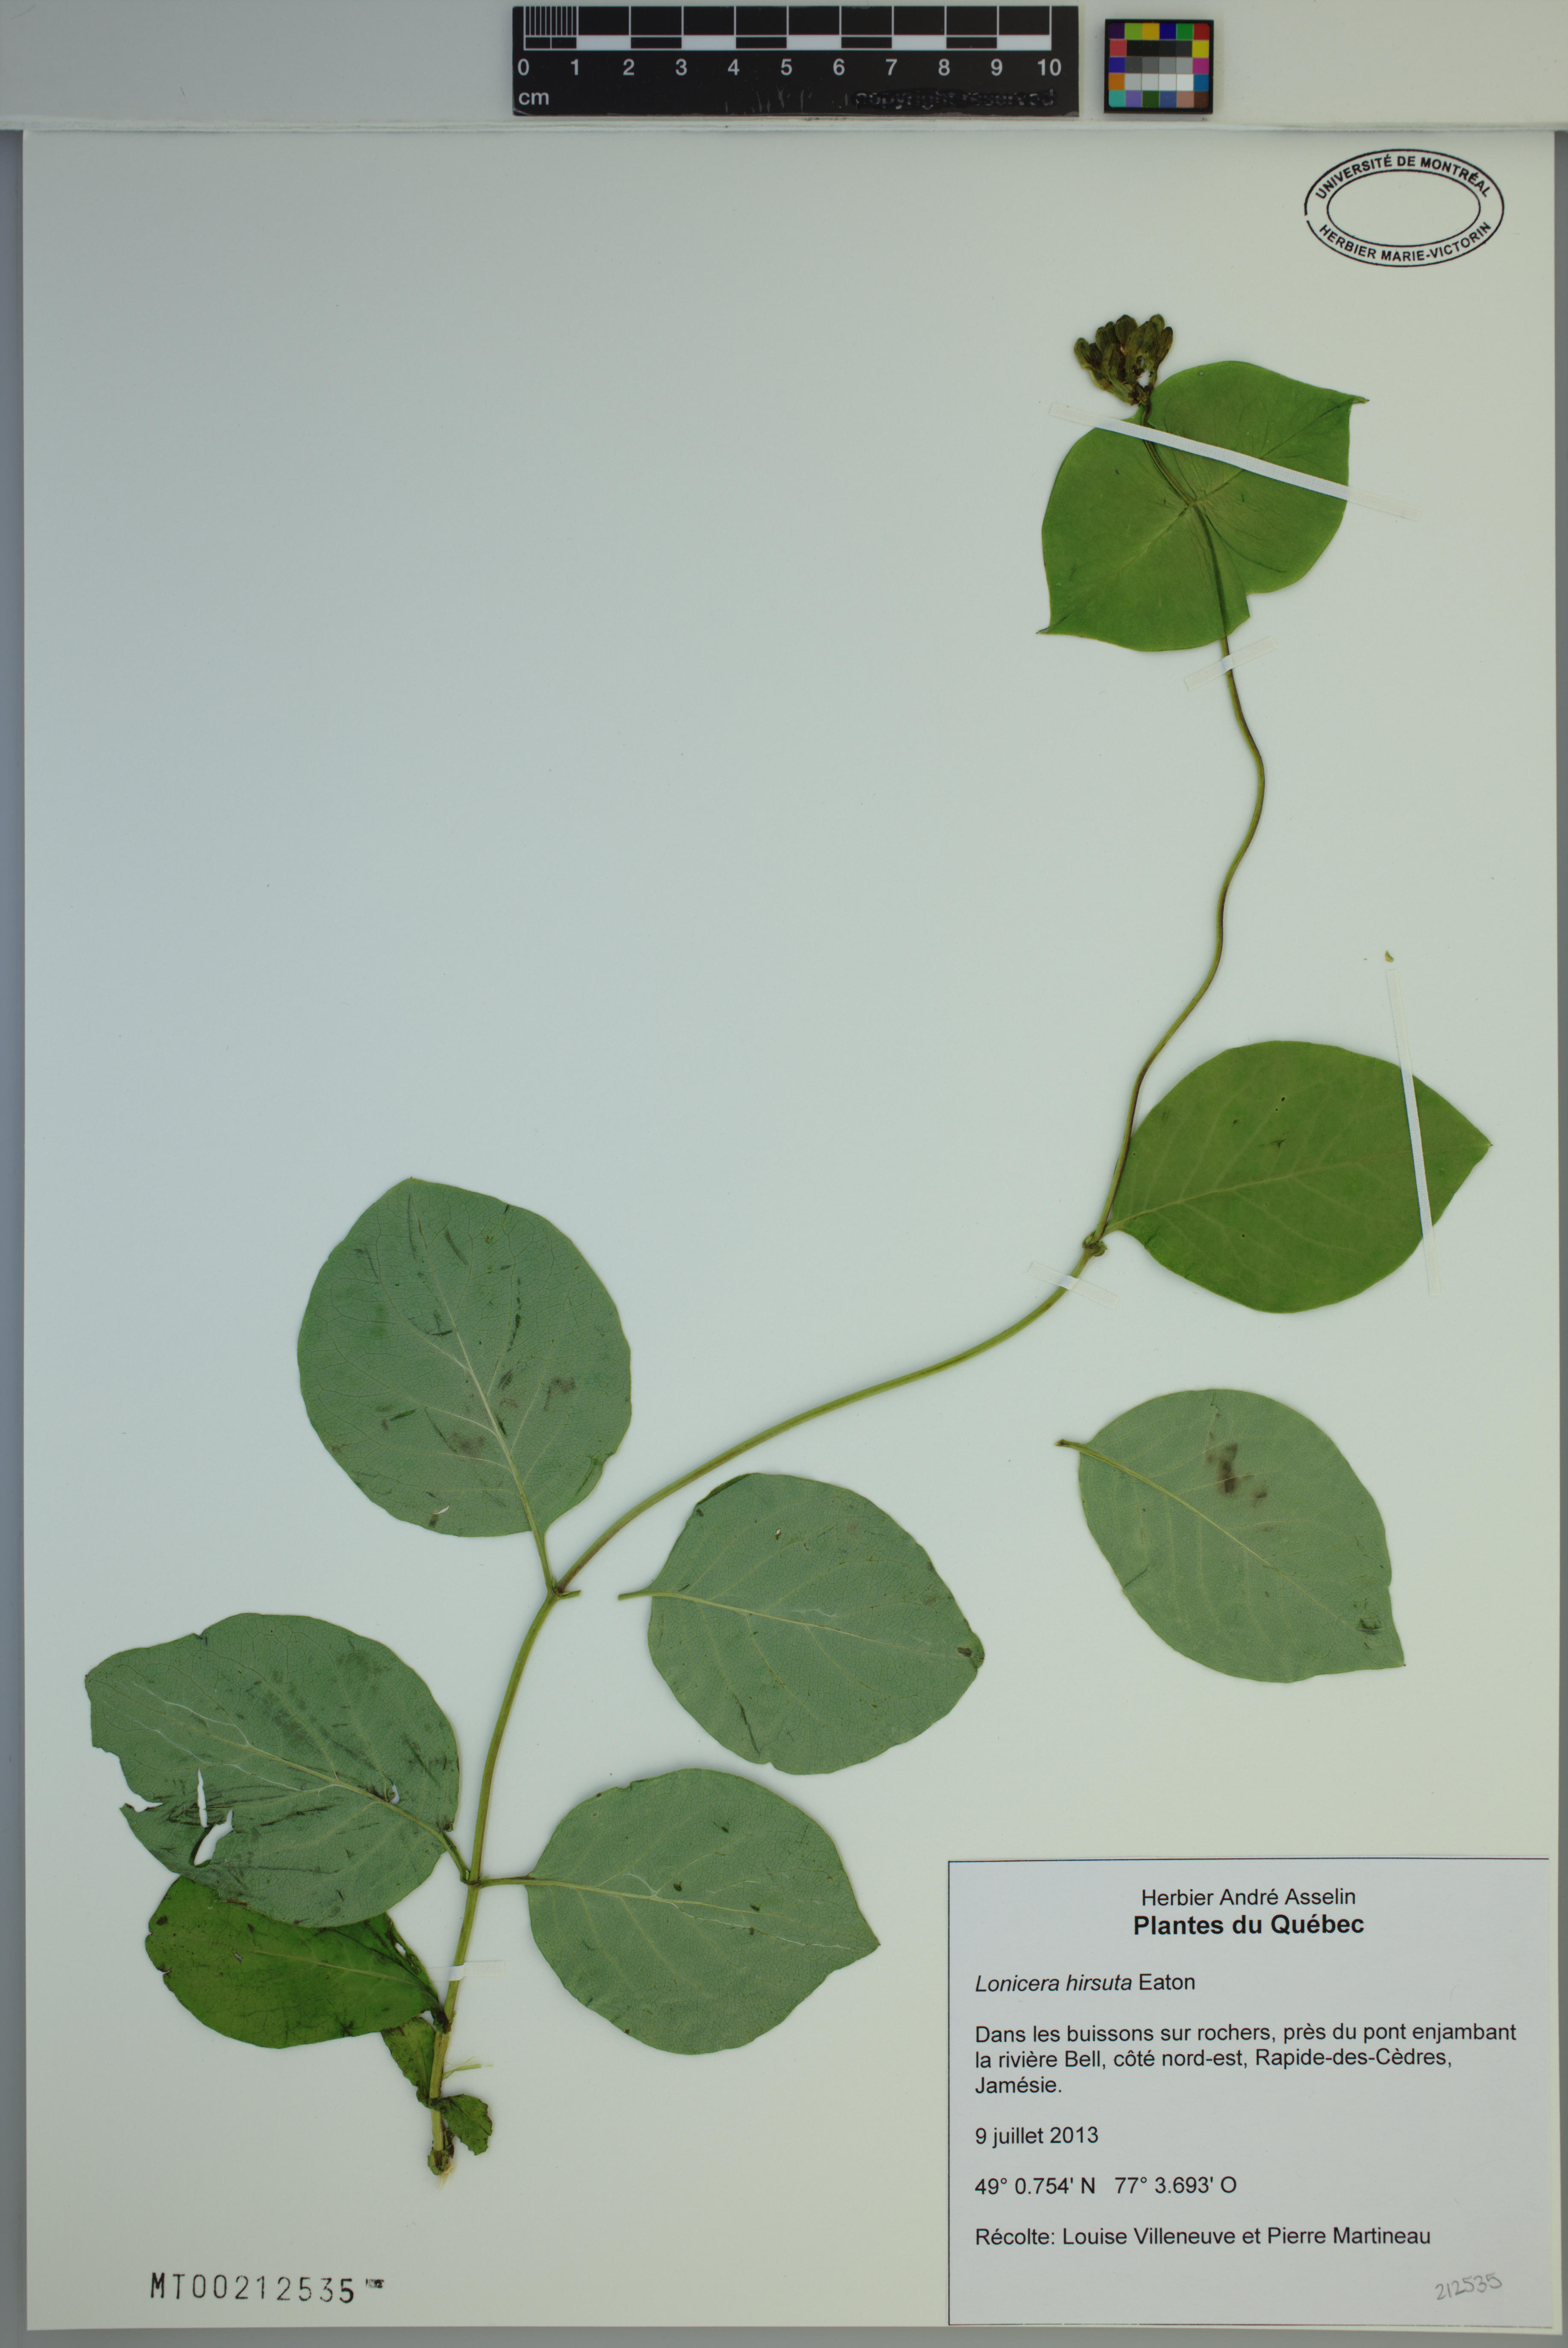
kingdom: Plantae
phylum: Tracheophyta
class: Magnoliopsida
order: Dipsacales
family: Caprifoliaceae
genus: Lonicera
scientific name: Lonicera hirsuta
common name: Hairy honeysuckle
